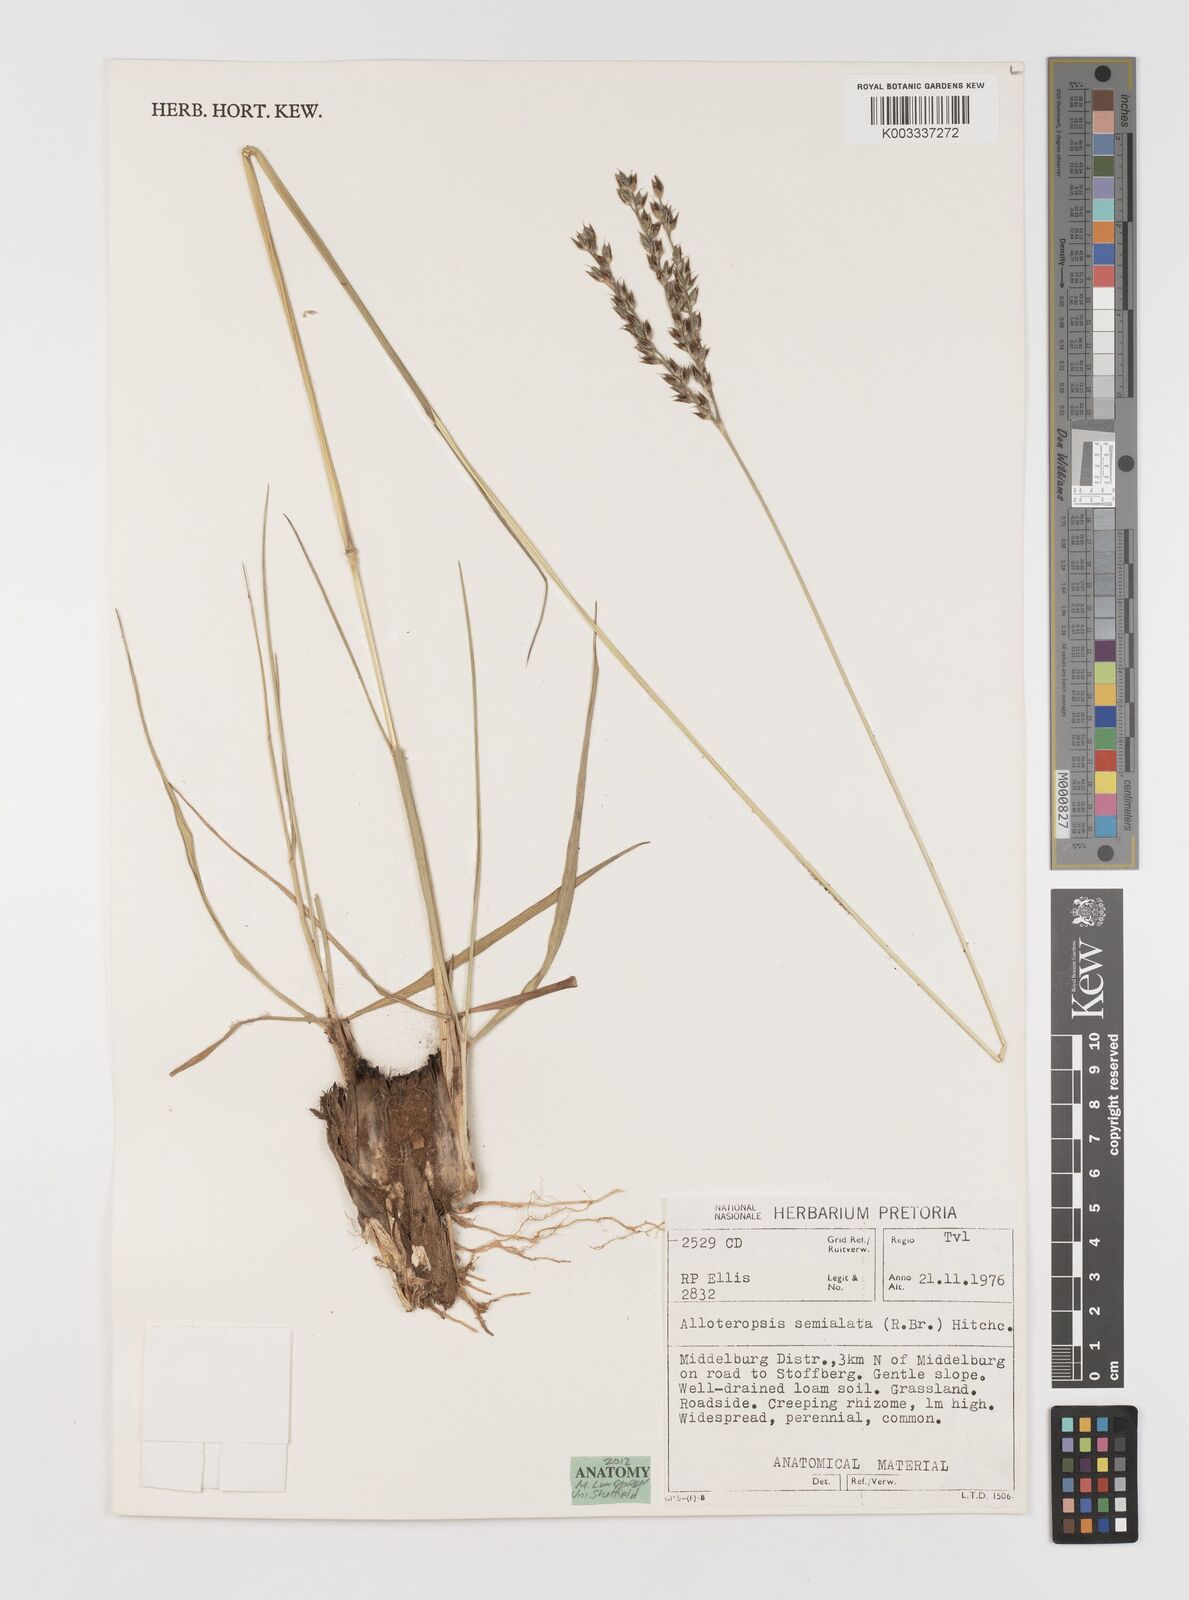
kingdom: Plantae
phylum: Tracheophyta
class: Liliopsida
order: Poales
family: Poaceae
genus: Alloteropsis
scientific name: Alloteropsis semialata
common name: Cockatoo grass
